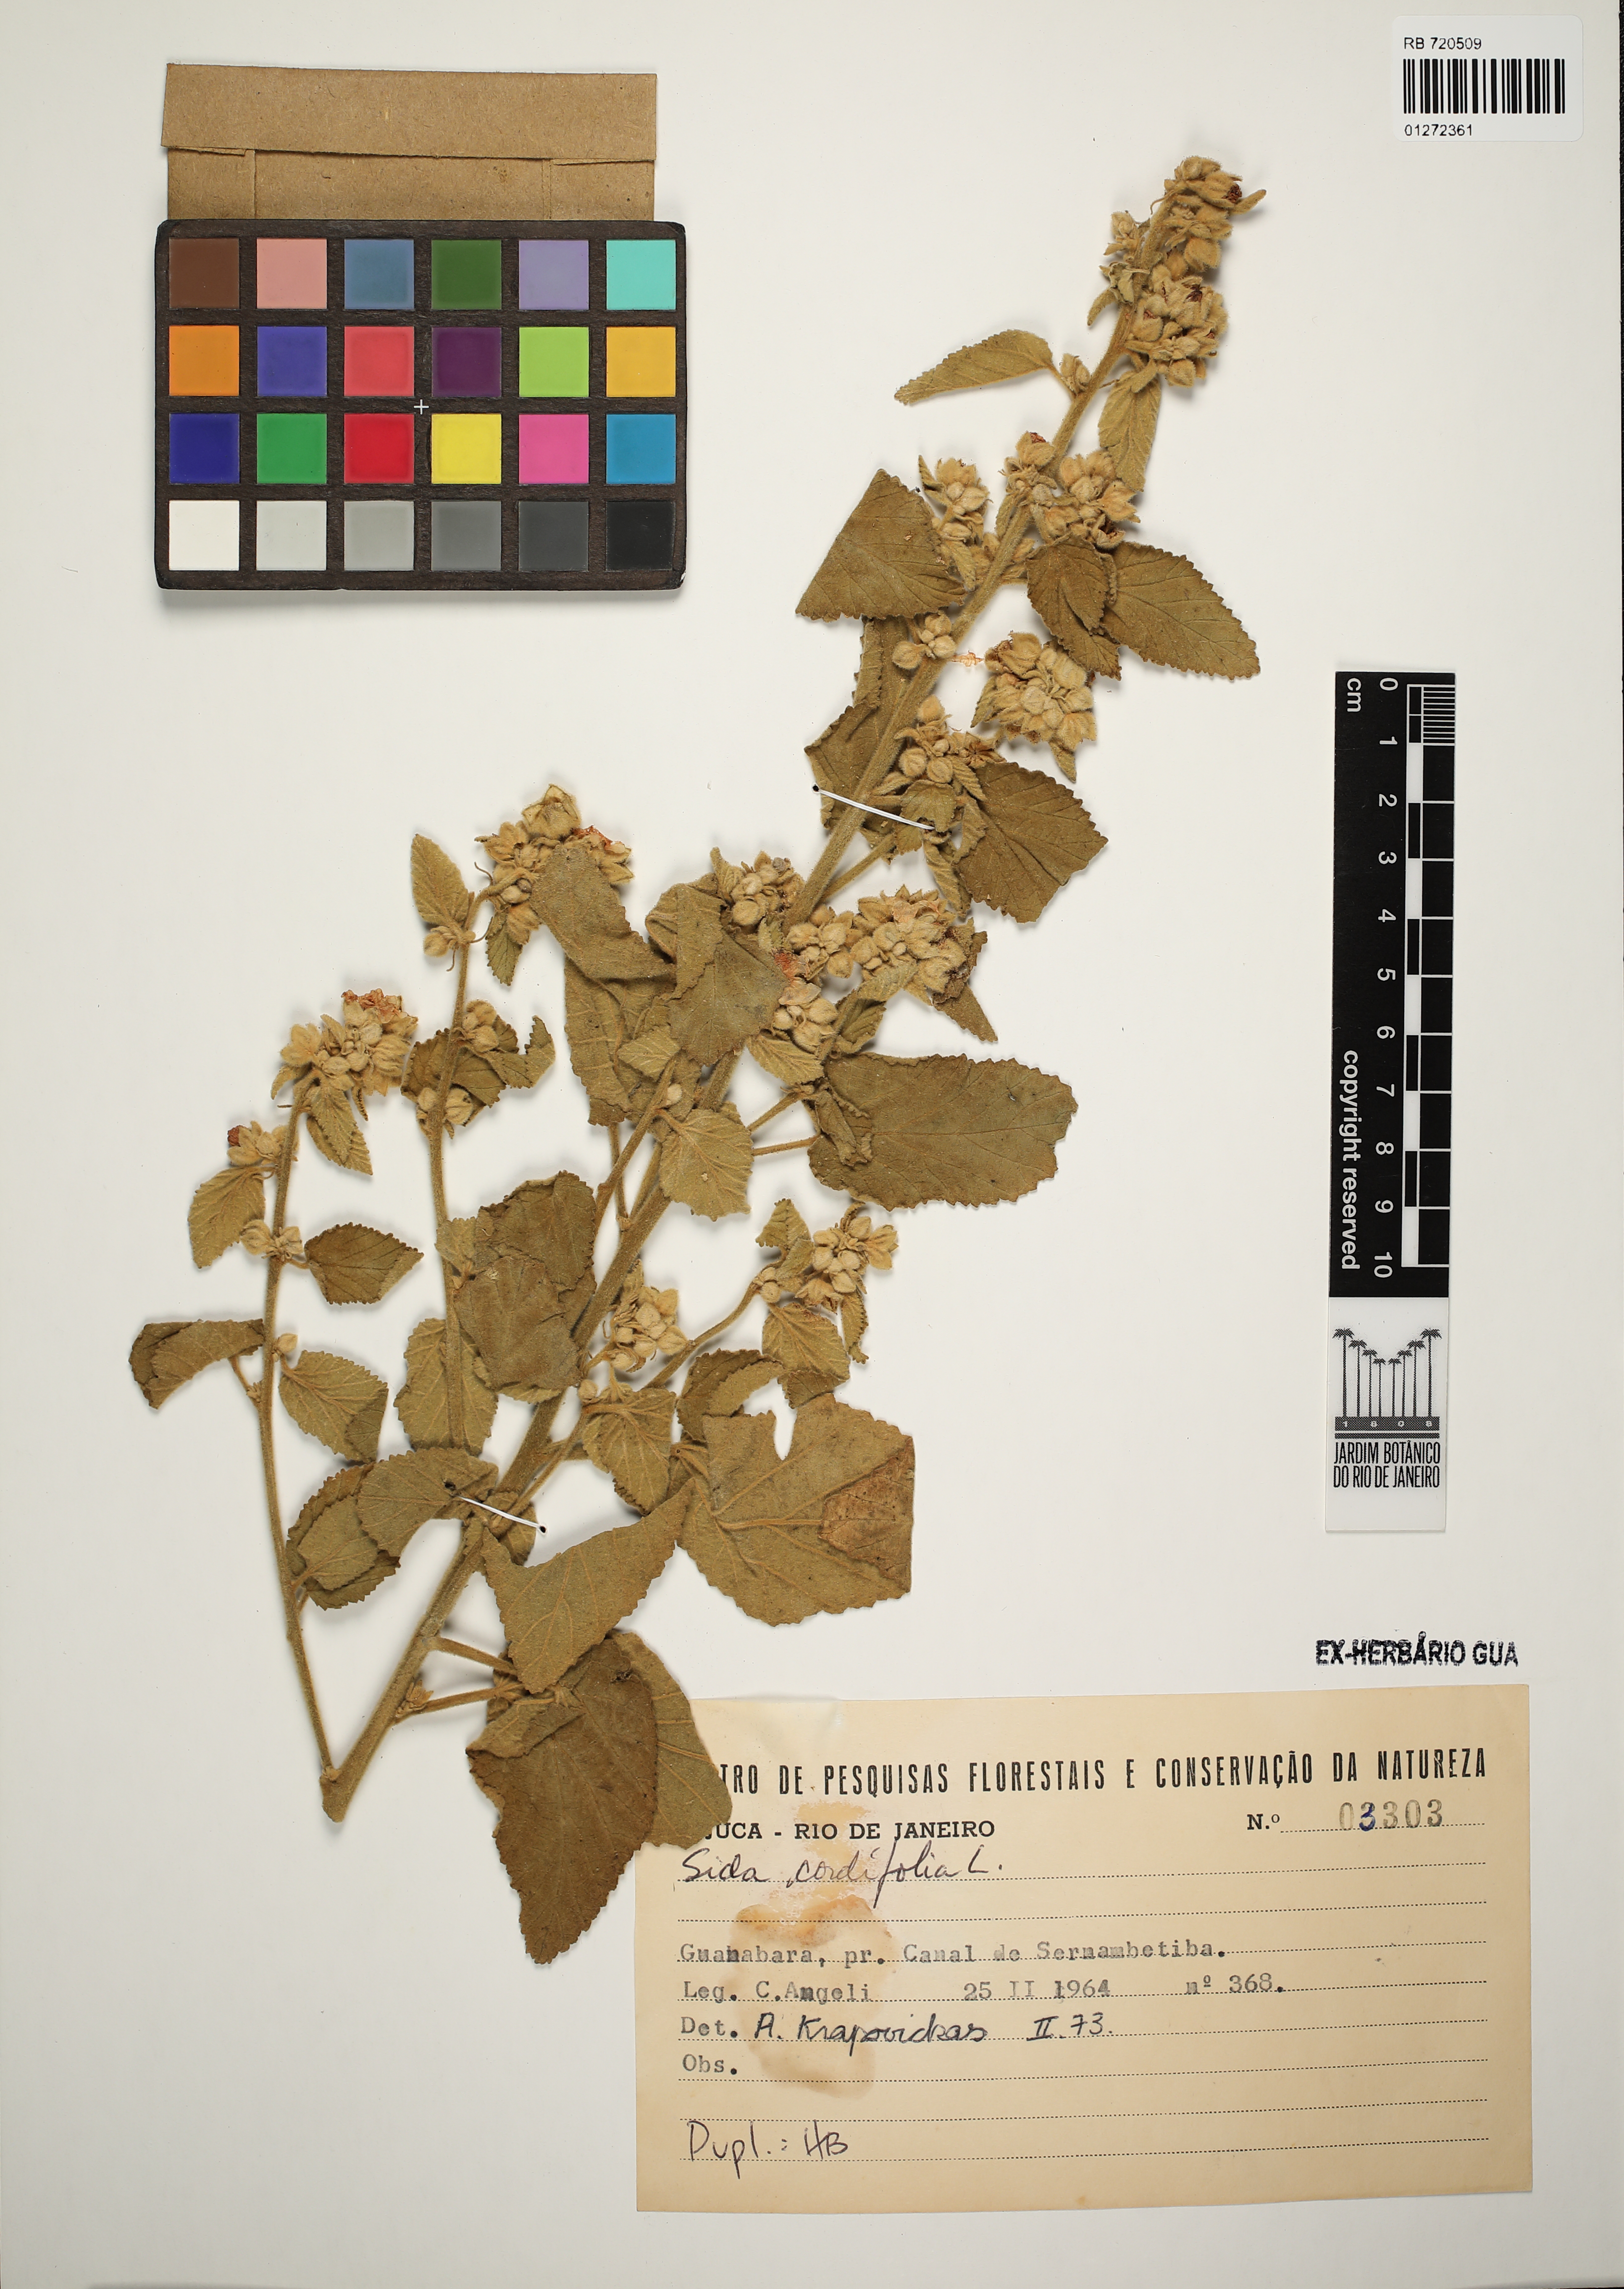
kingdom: Plantae
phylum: Tracheophyta
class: Magnoliopsida
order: Malvales
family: Malvaceae
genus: Sida
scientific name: Sida cordifolia
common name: Ilima
